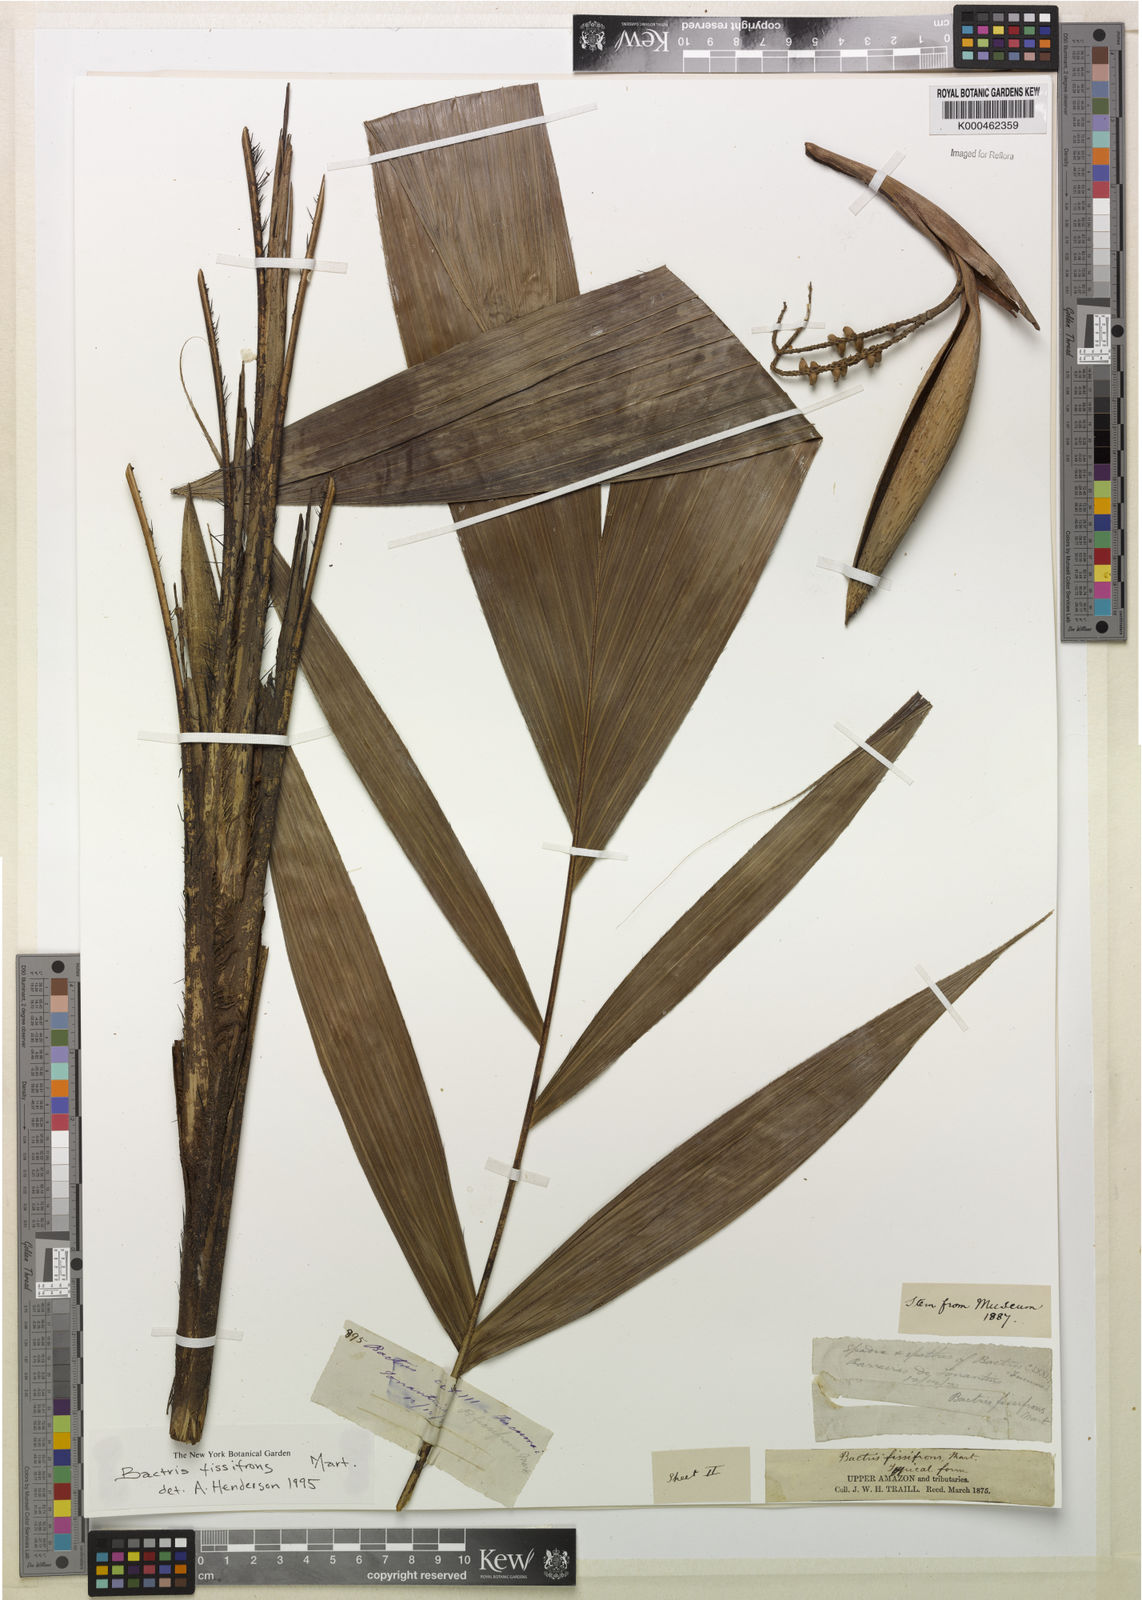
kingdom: Plantae
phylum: Tracheophyta
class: Liliopsida
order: Arecales
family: Arecaceae
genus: Bactris
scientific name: Bactris fissifrons
